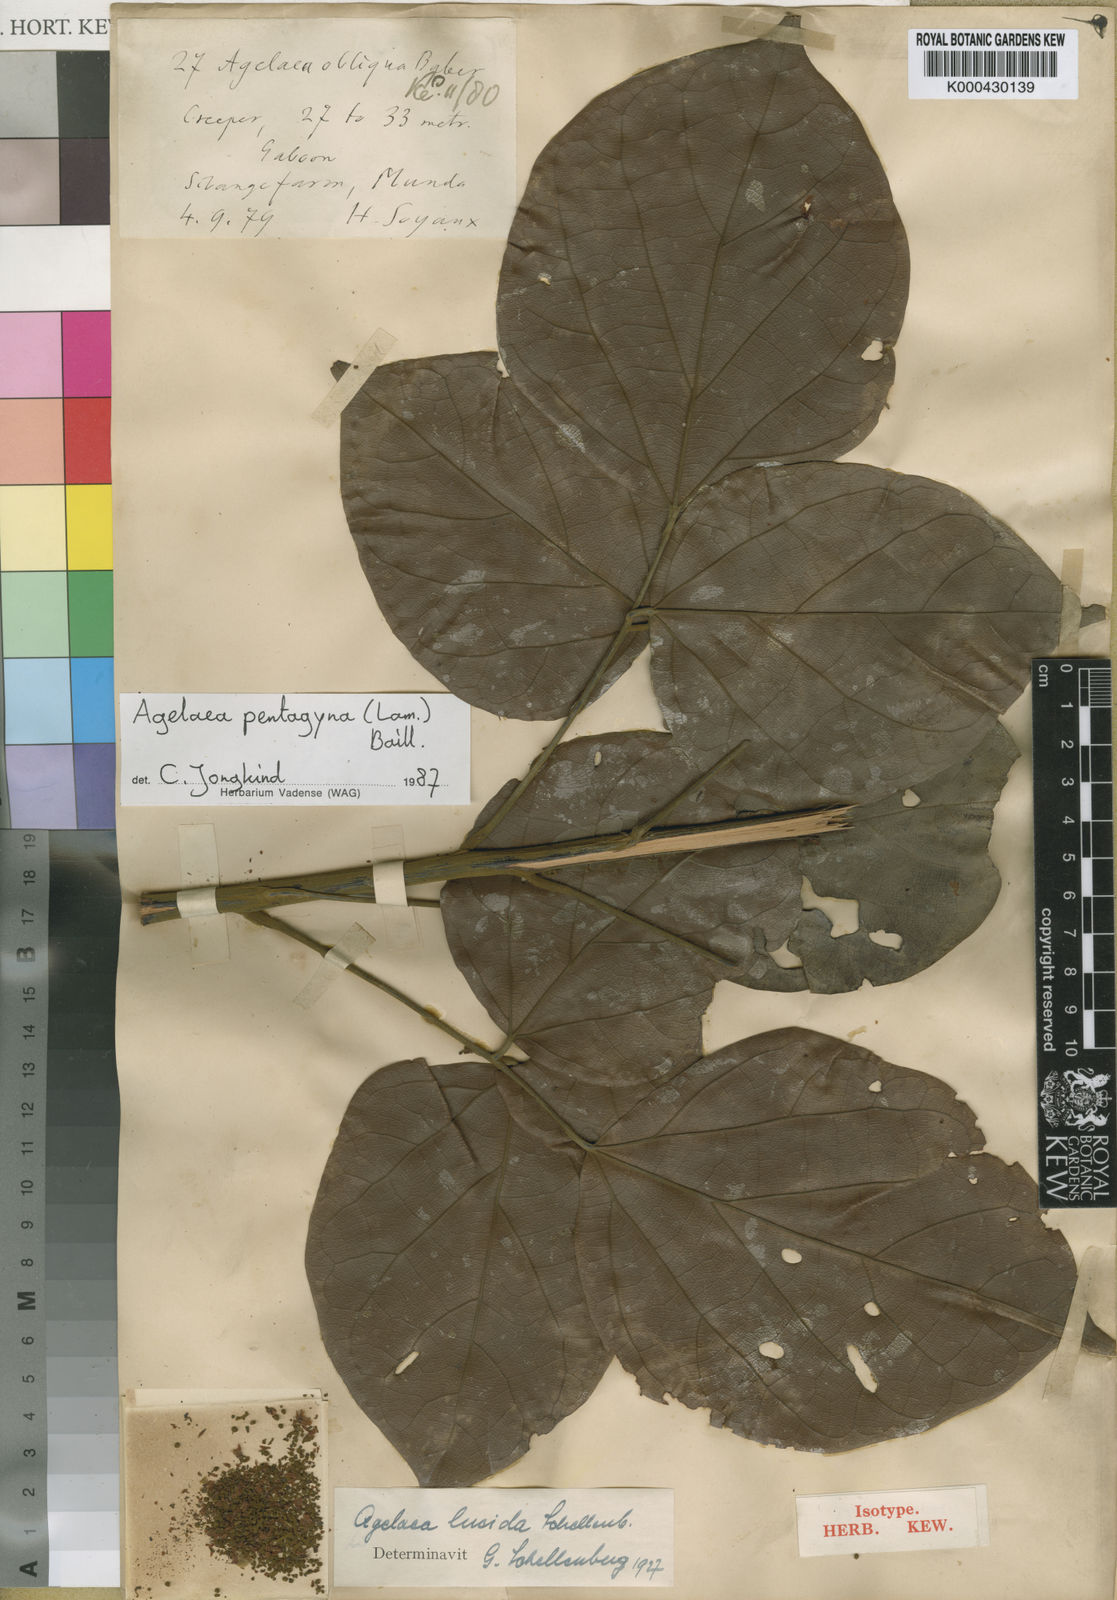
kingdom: Plantae
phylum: Tracheophyta
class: Magnoliopsida
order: Oxalidales
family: Connaraceae
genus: Agelaea
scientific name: Agelaea pentagyna
